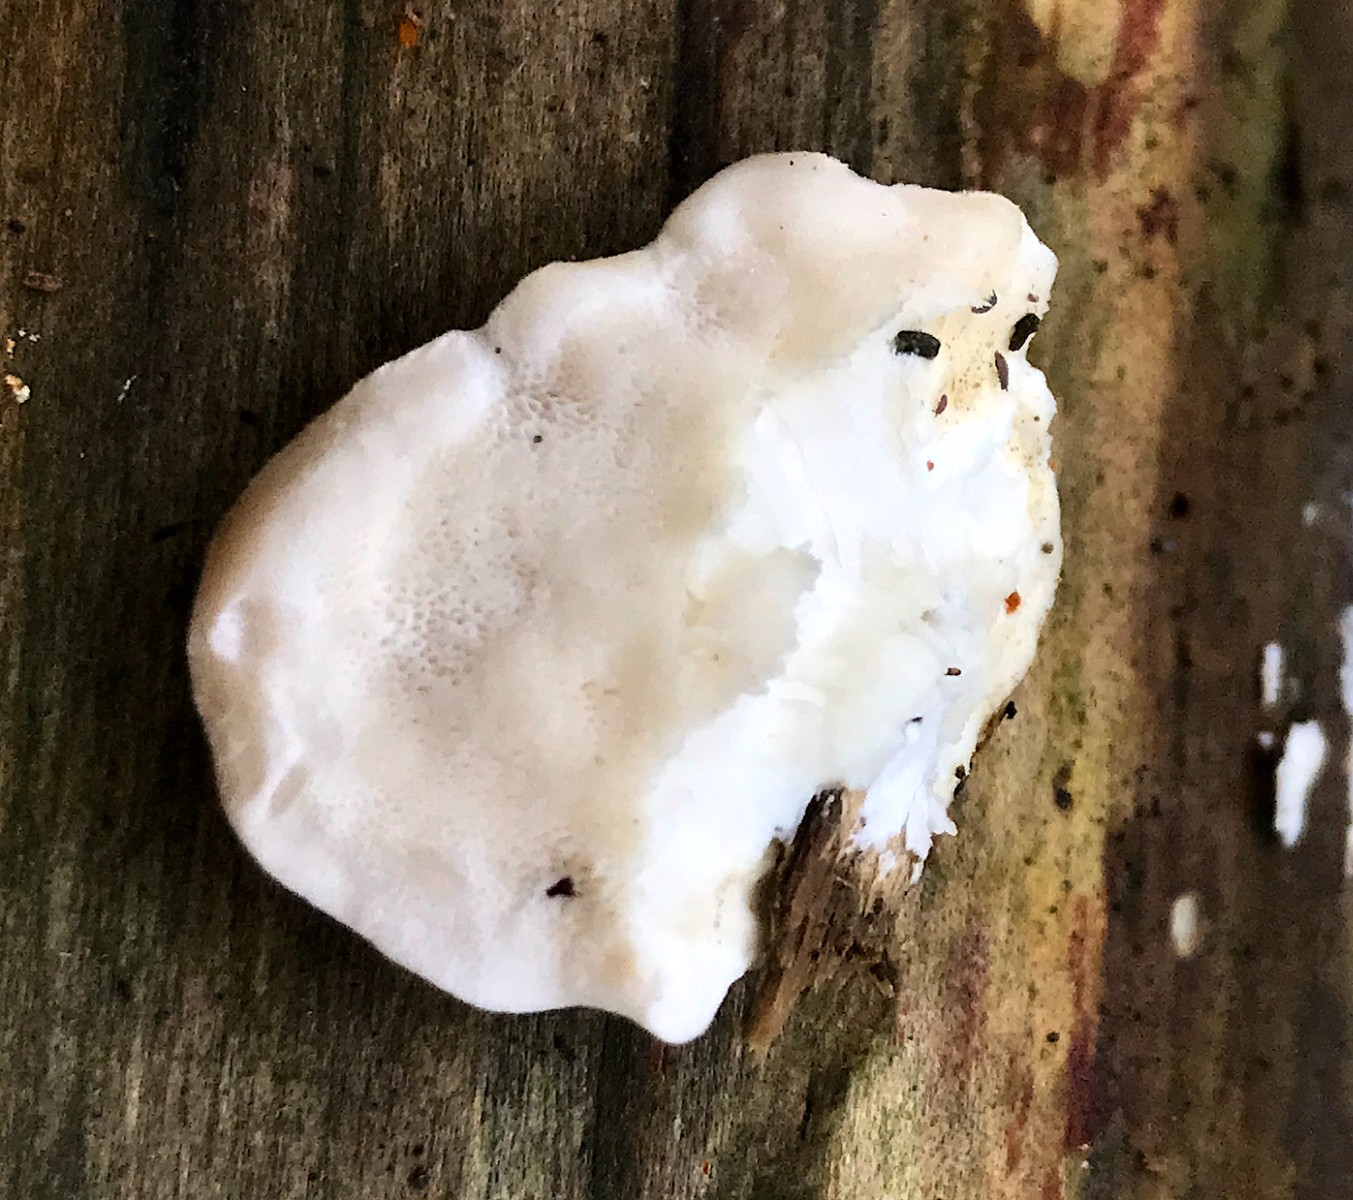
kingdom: Fungi
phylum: Basidiomycota
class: Agaricomycetes
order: Polyporales
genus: Amaropostia
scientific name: Amaropostia stiptica
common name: bitter kødporesvamp
